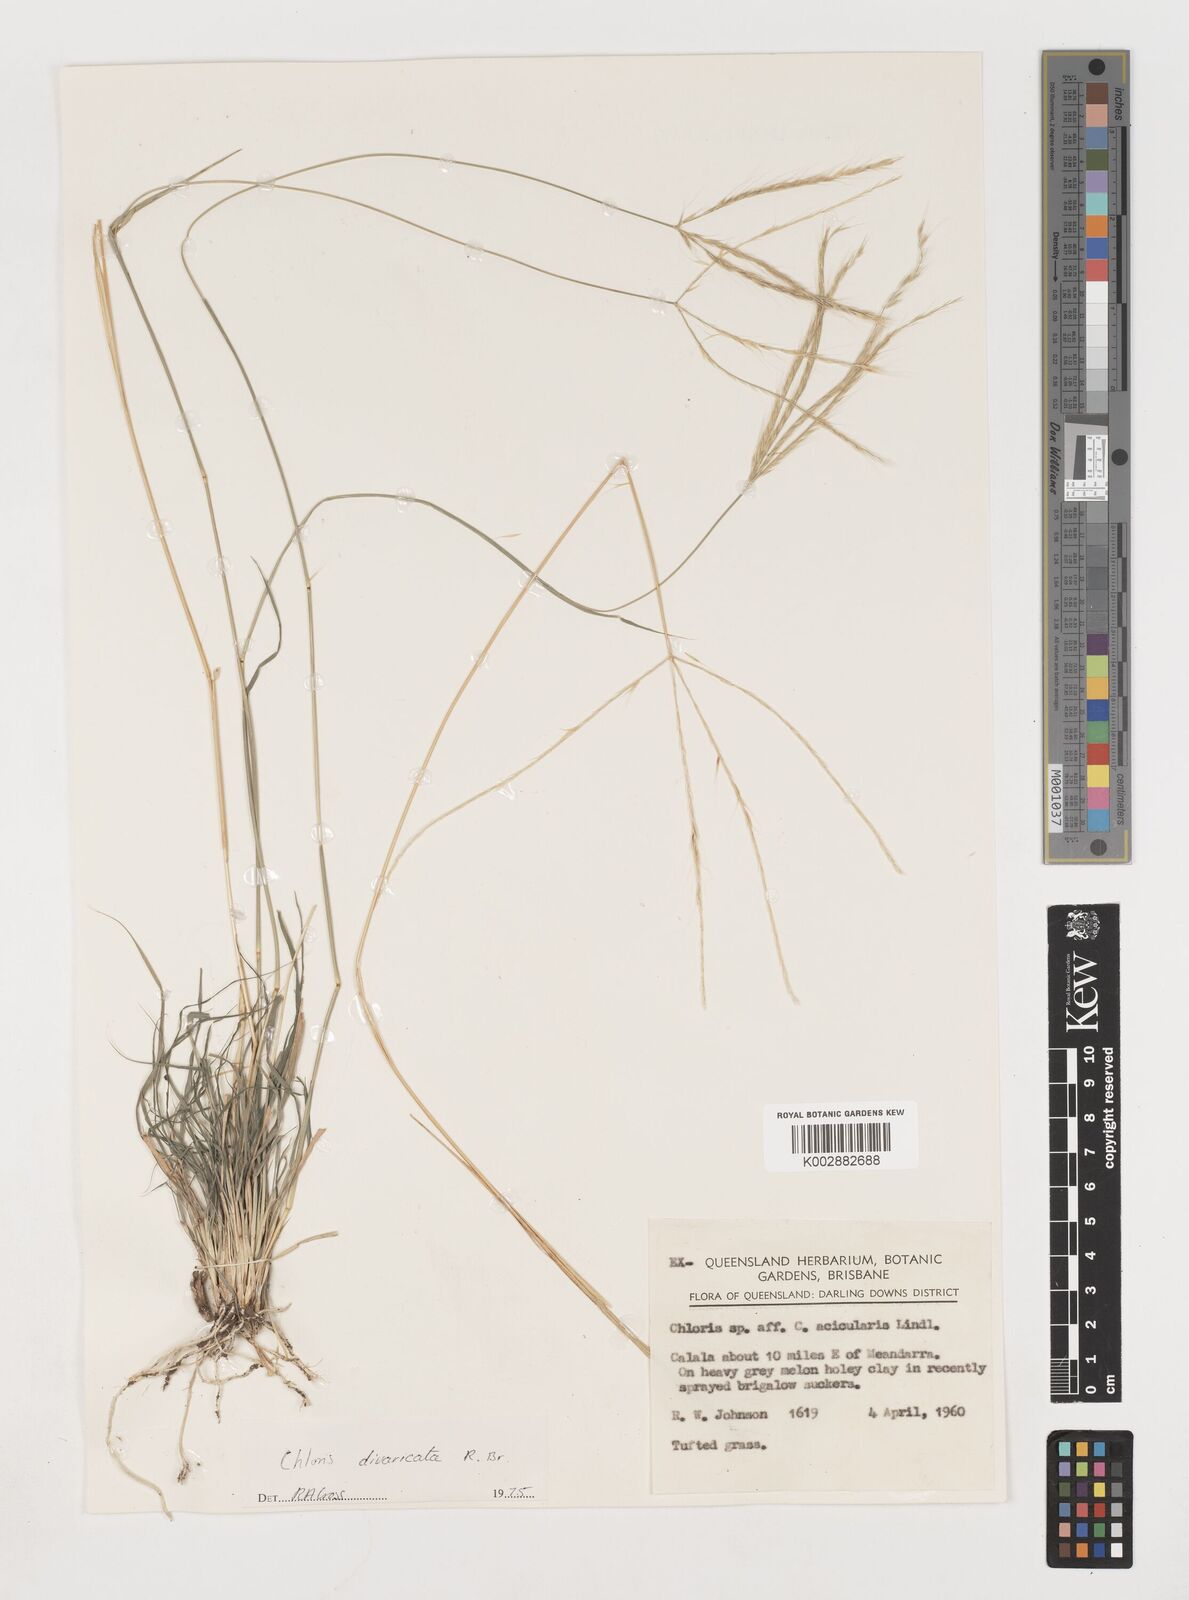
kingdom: Plantae
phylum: Tracheophyta
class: Liliopsida
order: Poales
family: Poaceae
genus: Chloris
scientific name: Chloris divaricata
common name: Spreading windmill grass
